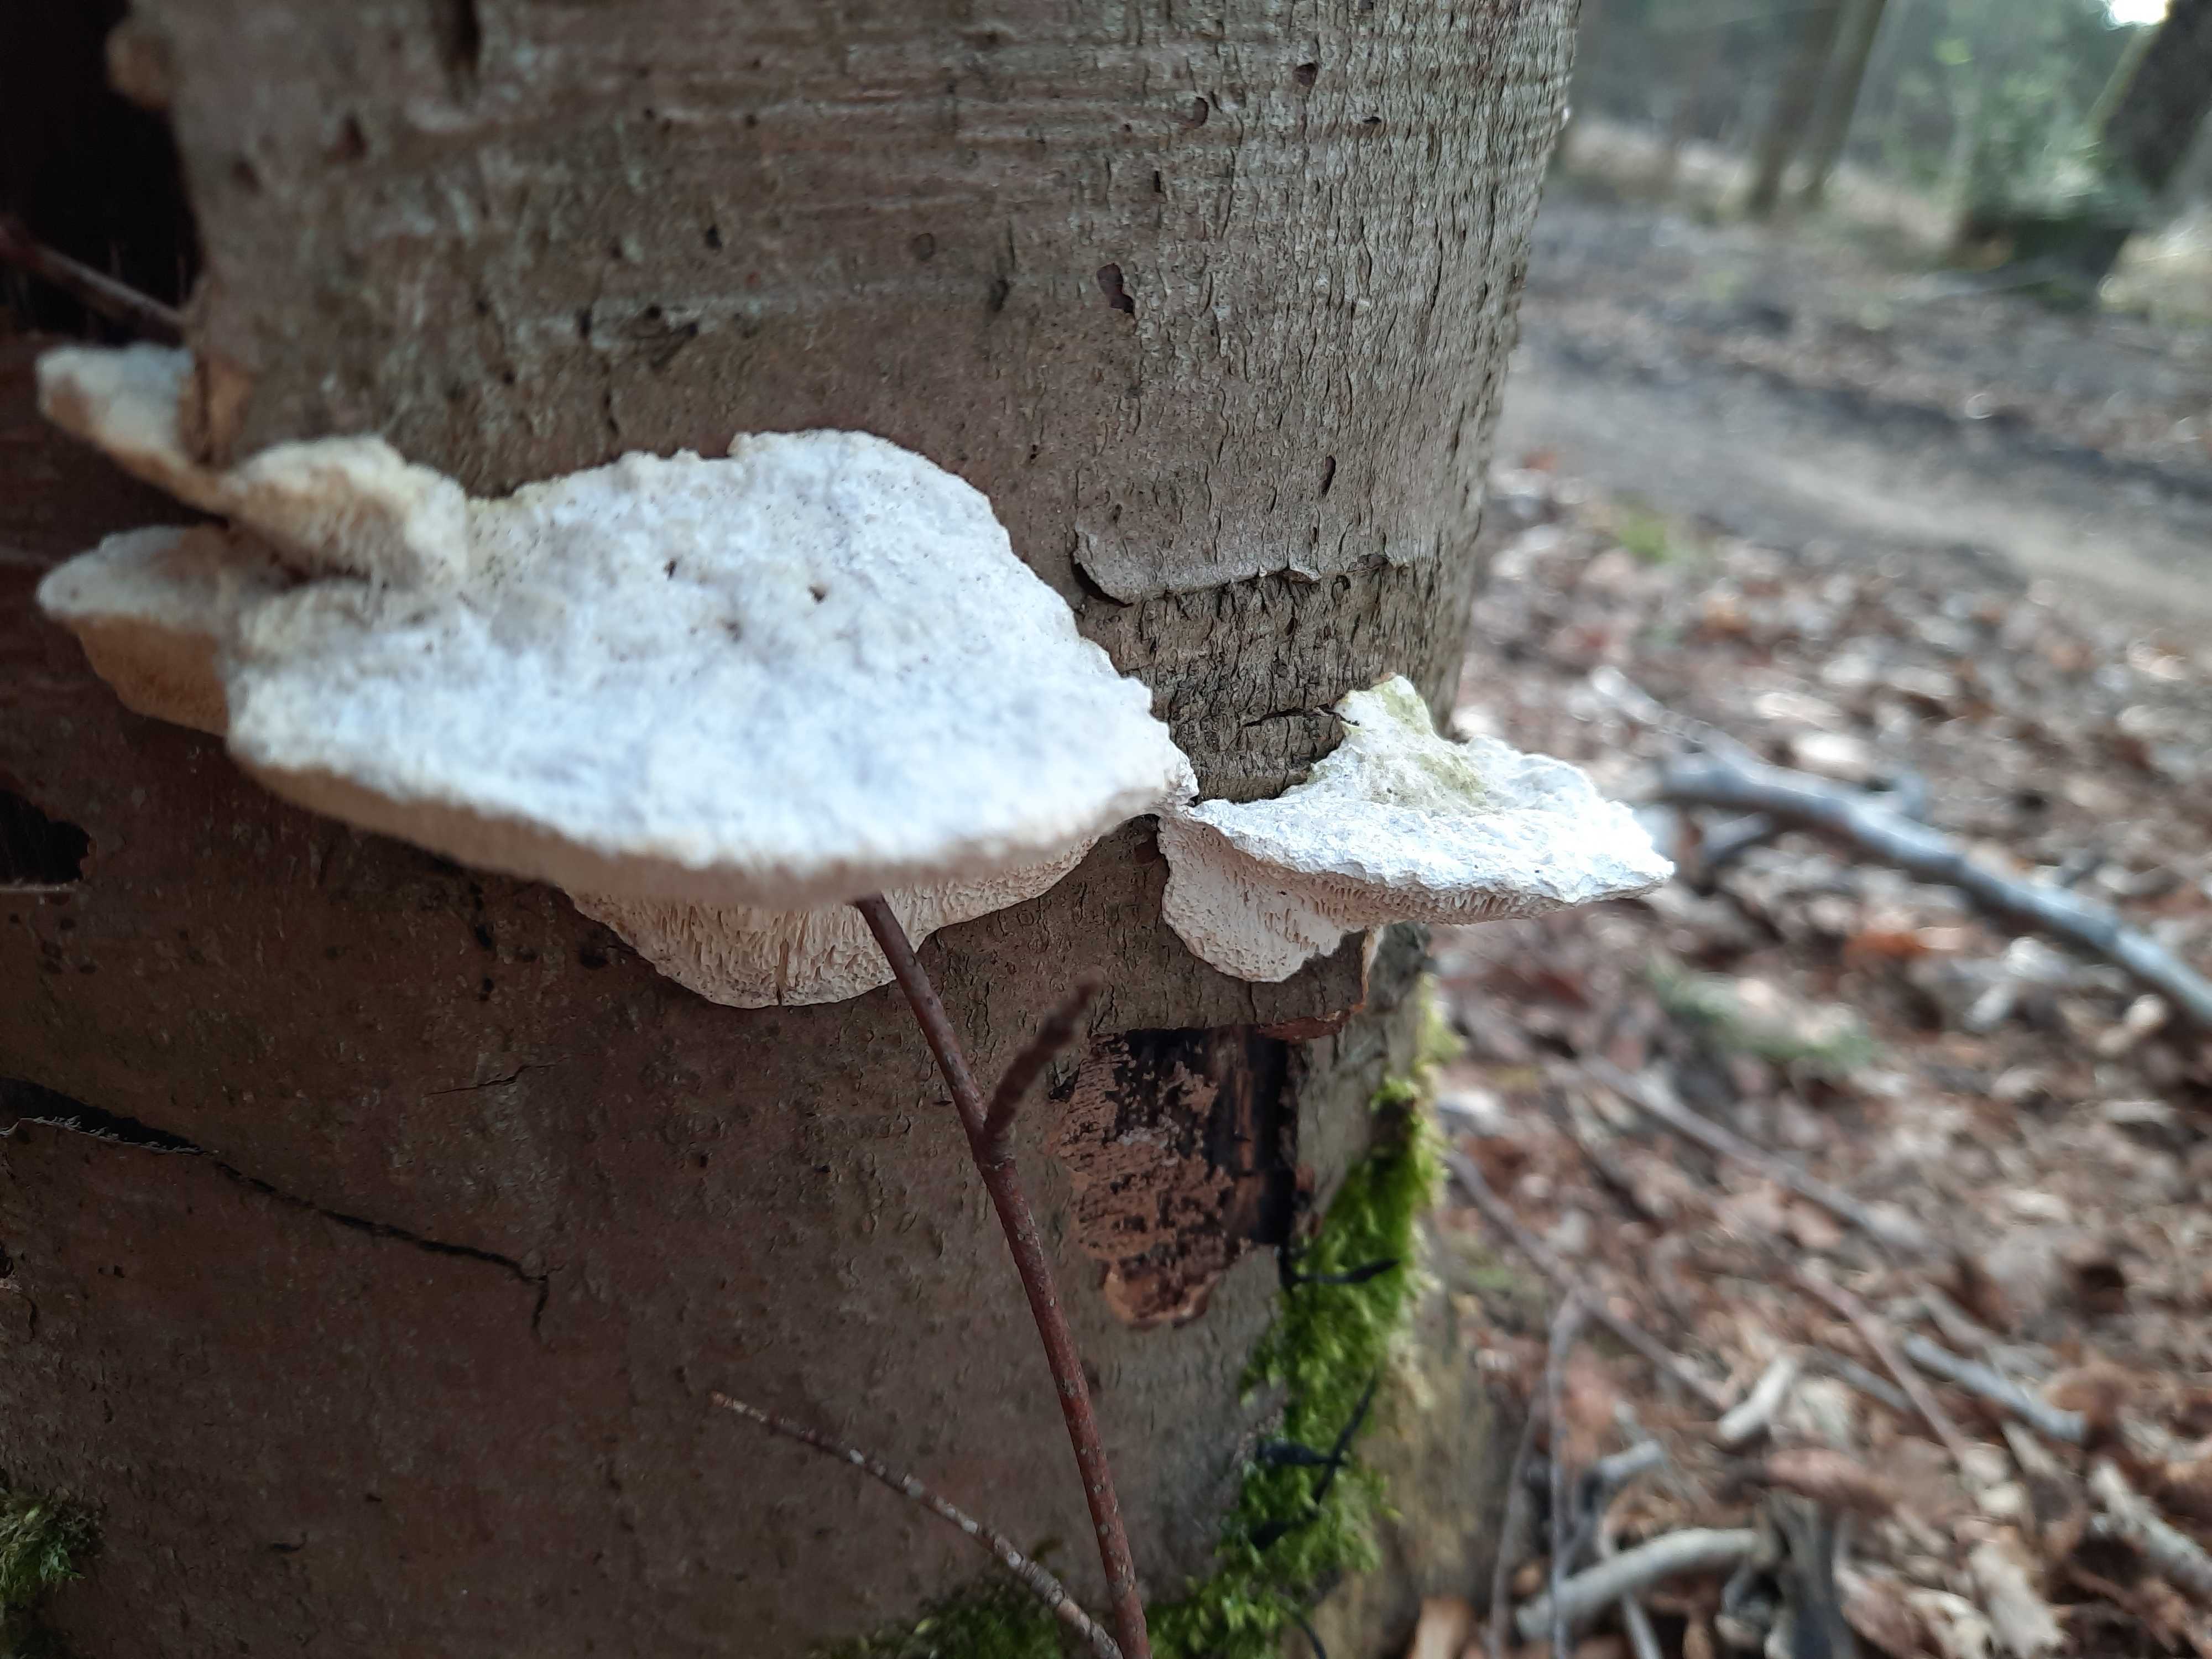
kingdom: Fungi
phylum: Basidiomycota
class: Agaricomycetes
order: Polyporales
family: Polyporaceae
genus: Trametes
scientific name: Trametes gibbosa
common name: puklet læderporesvamp
